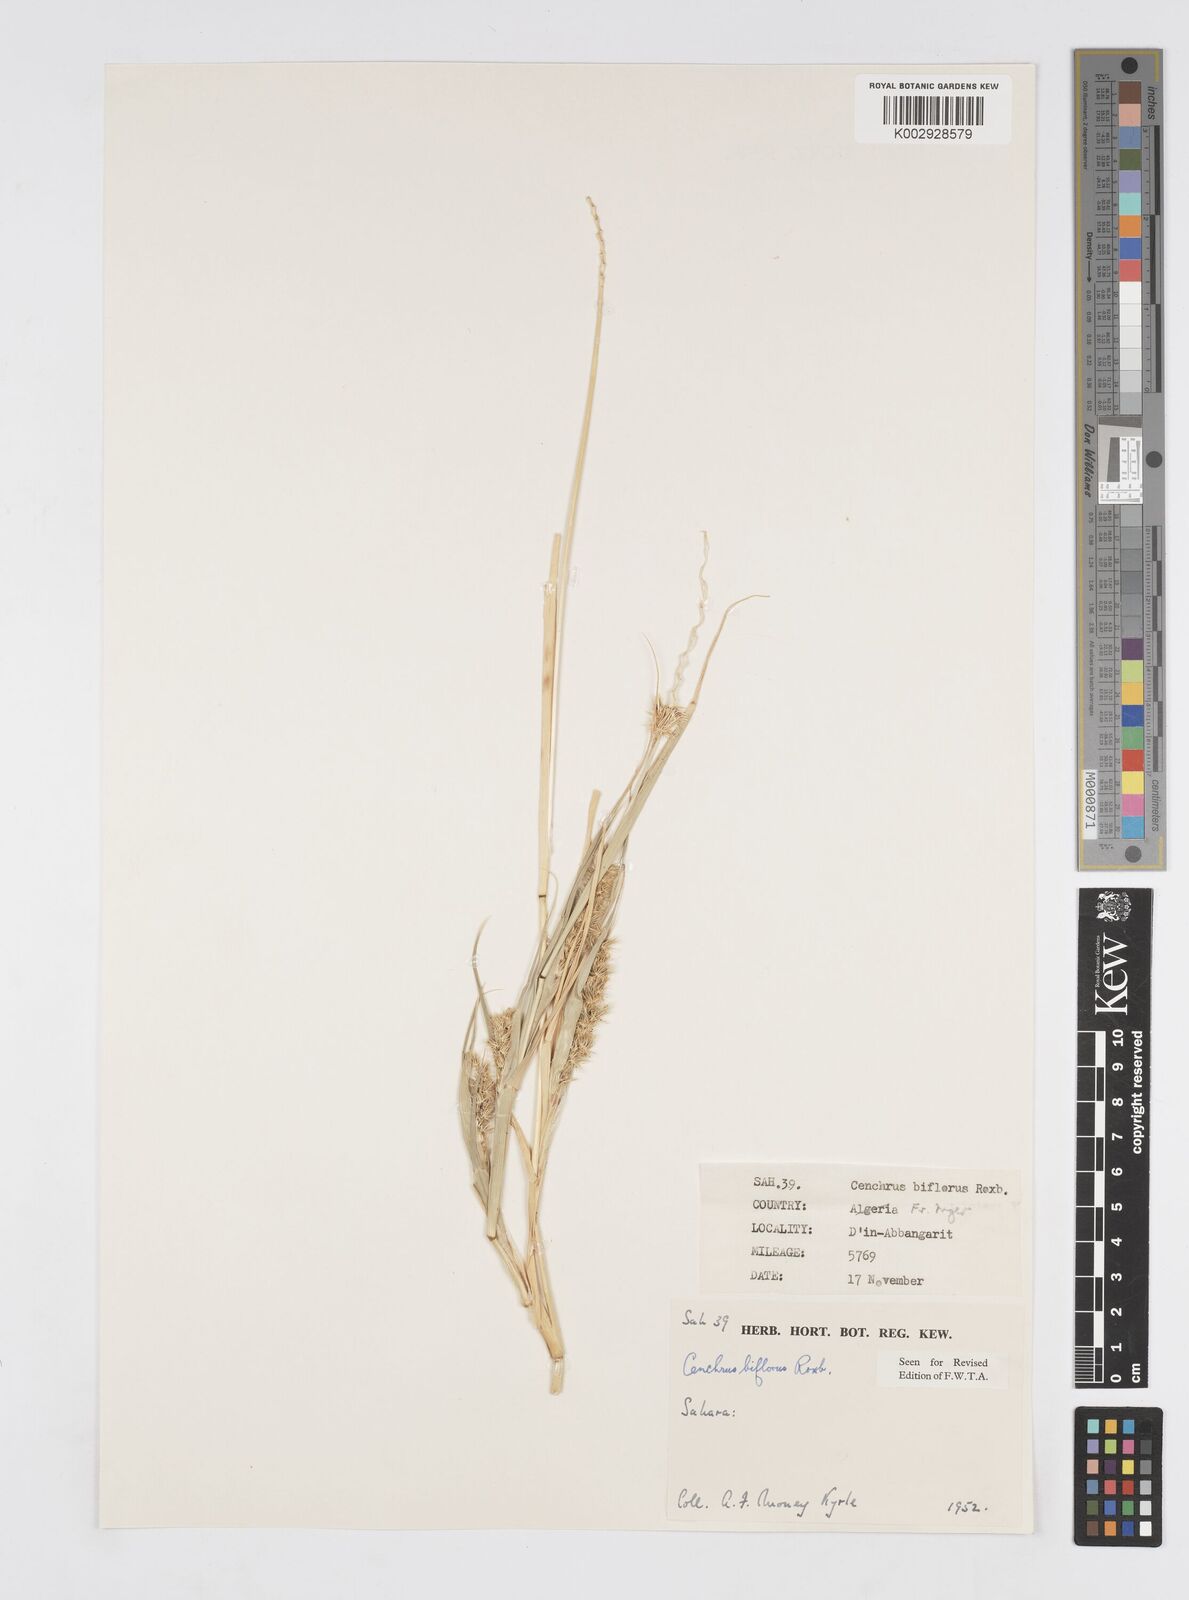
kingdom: Plantae
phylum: Tracheophyta
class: Liliopsida
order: Poales
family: Poaceae
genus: Cenchrus
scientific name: Cenchrus biflorus
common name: Indian sandbur
